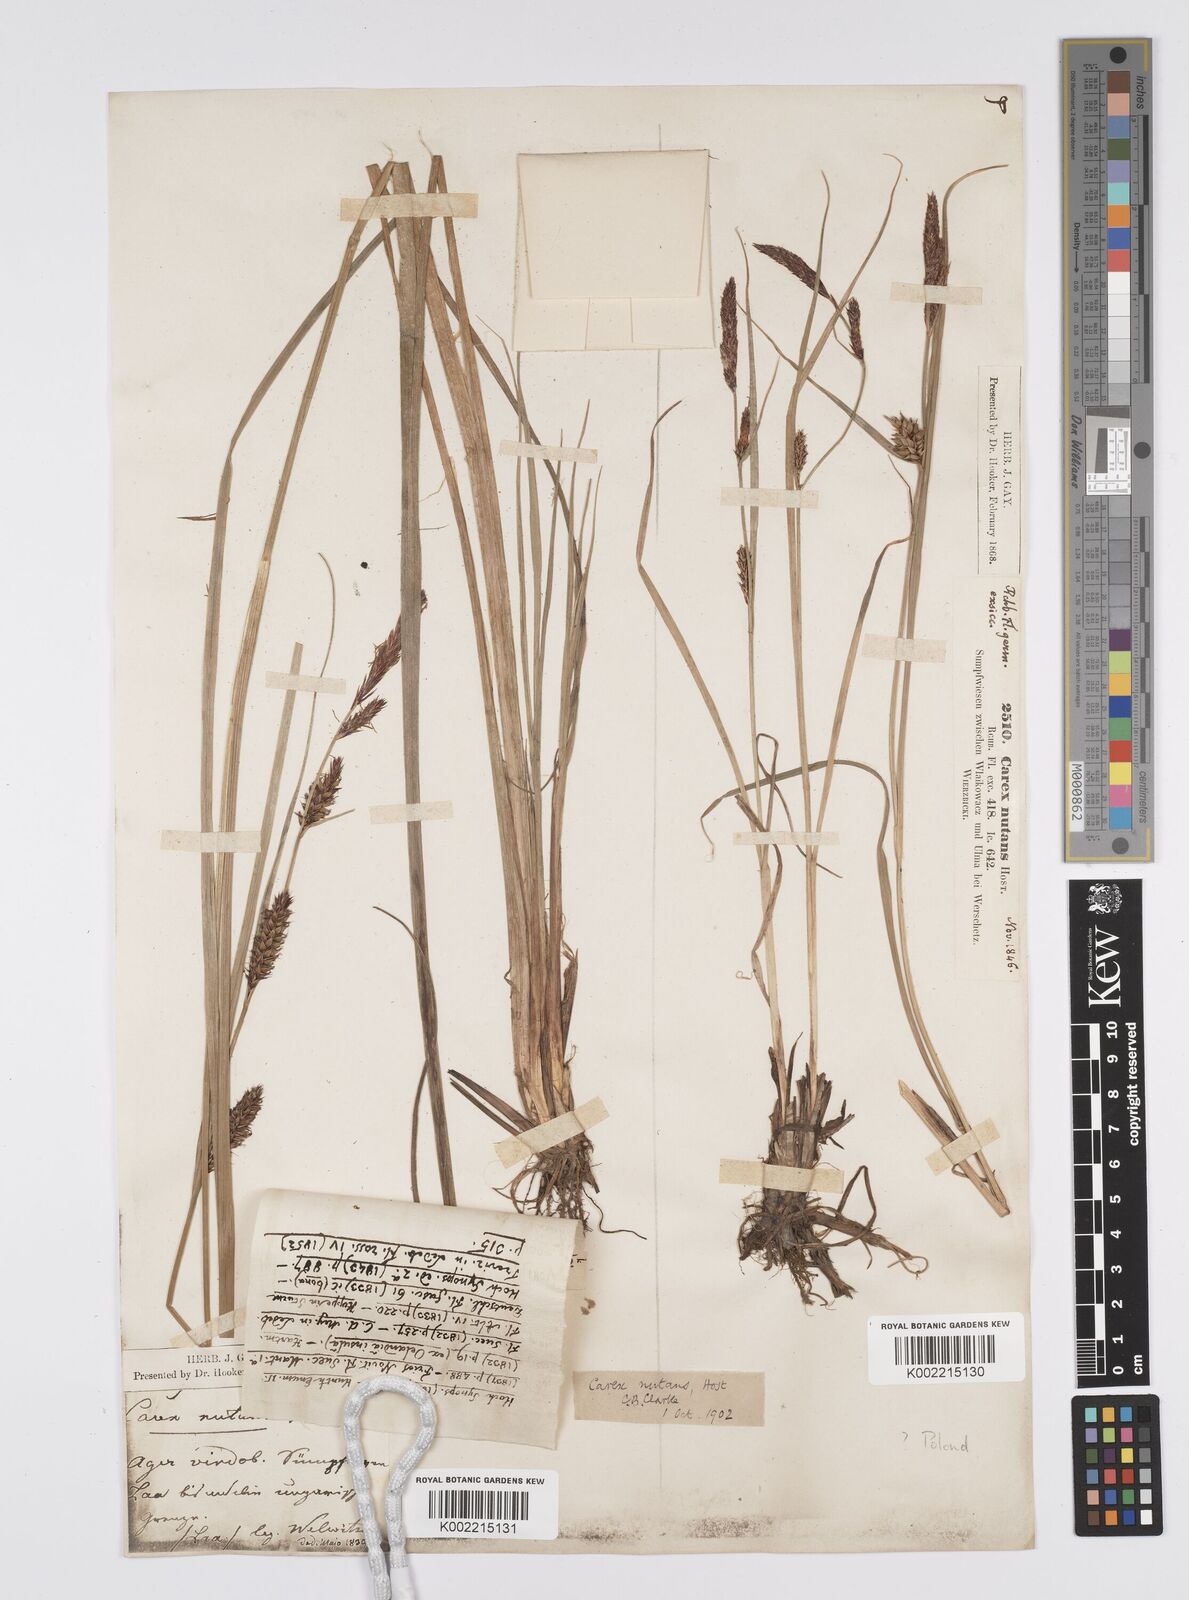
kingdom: Plantae
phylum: Tracheophyta
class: Liliopsida
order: Poales
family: Cyperaceae
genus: Carex
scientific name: Carex melanostachya
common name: Black-spiked sedge
